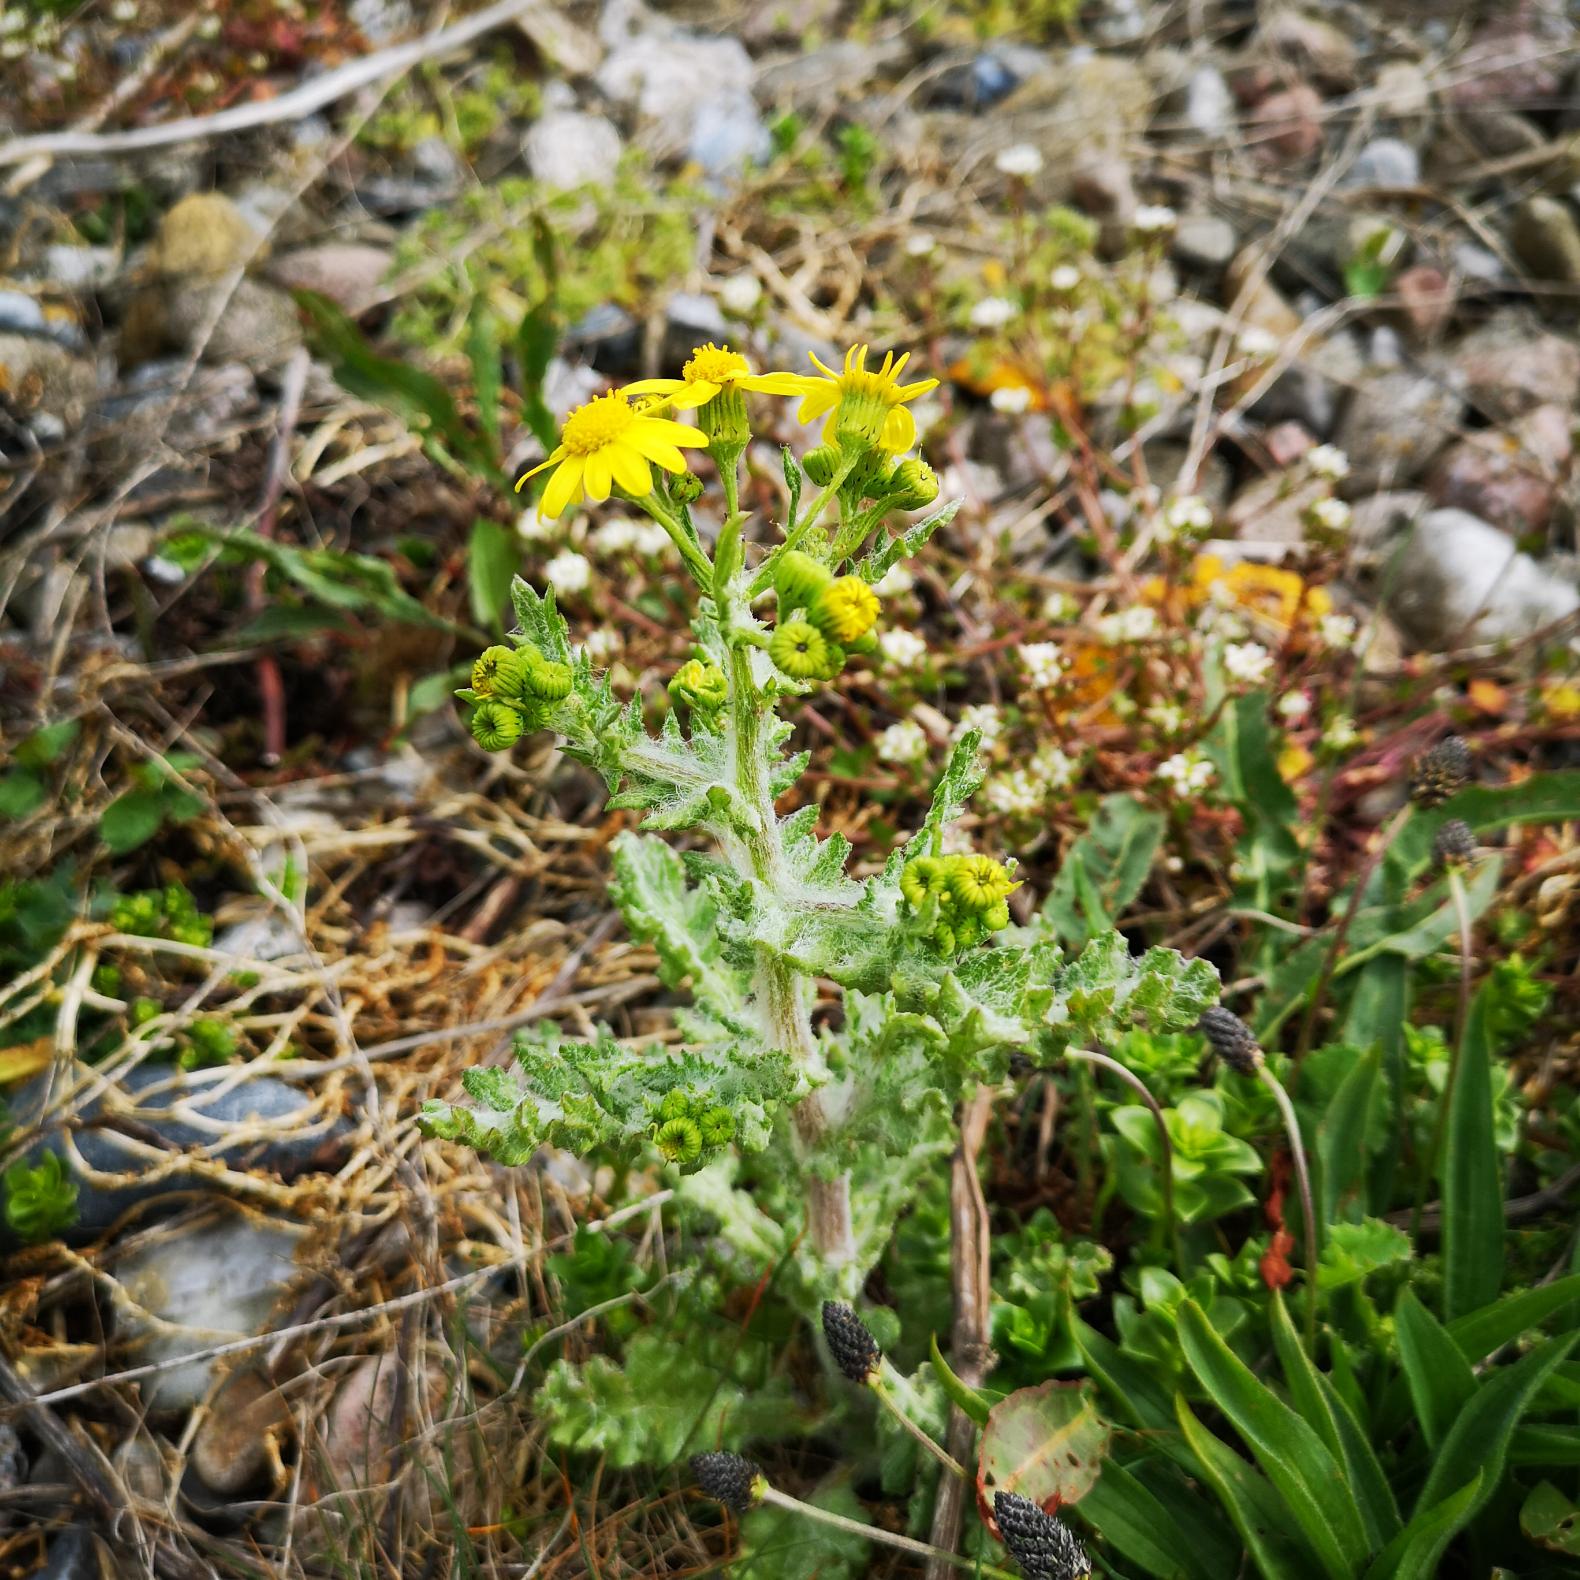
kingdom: Plantae
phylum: Tracheophyta
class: Magnoliopsida
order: Asterales
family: Asteraceae
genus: Senecio
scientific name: Senecio leucanthemifolius
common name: Vår-brandbæger
